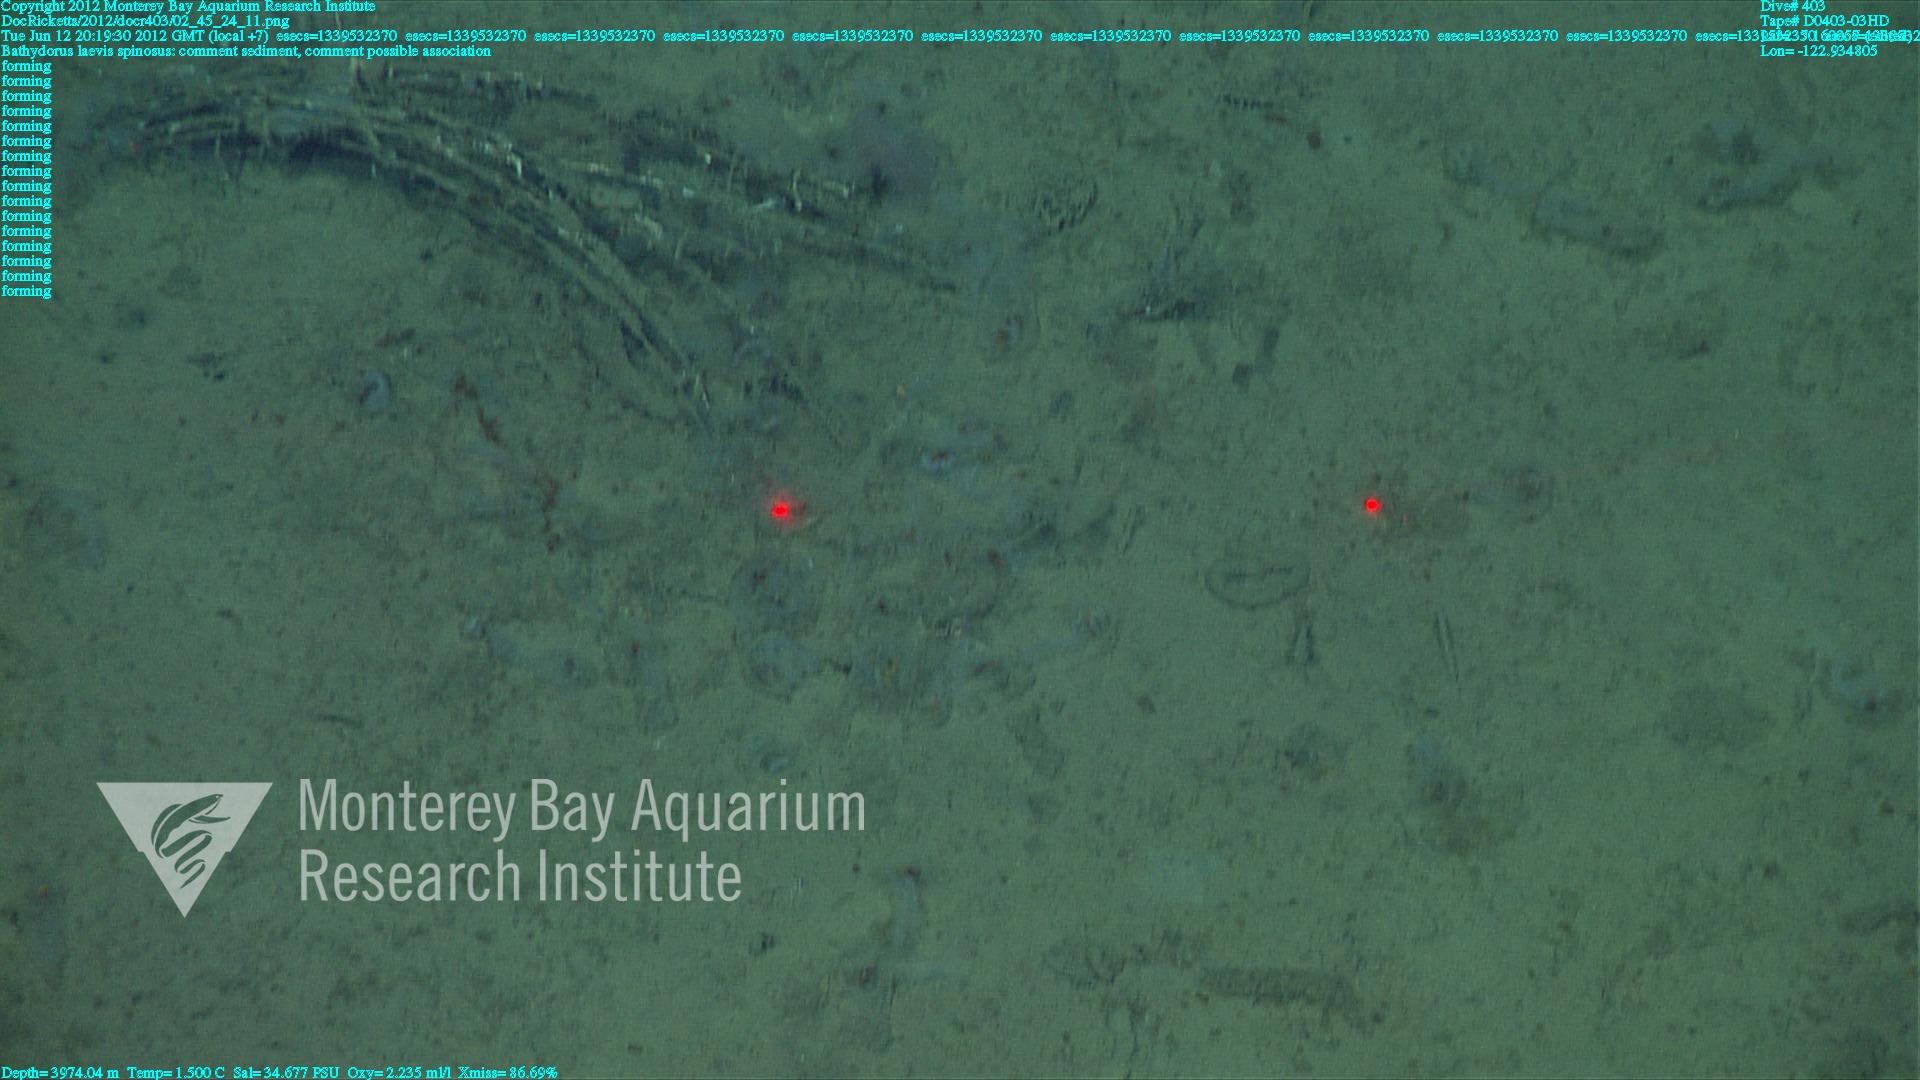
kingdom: Animalia
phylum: Porifera
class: Hexactinellida
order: Lyssacinosida
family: Rossellidae
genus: Bathydorus
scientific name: Bathydorus spinosus
